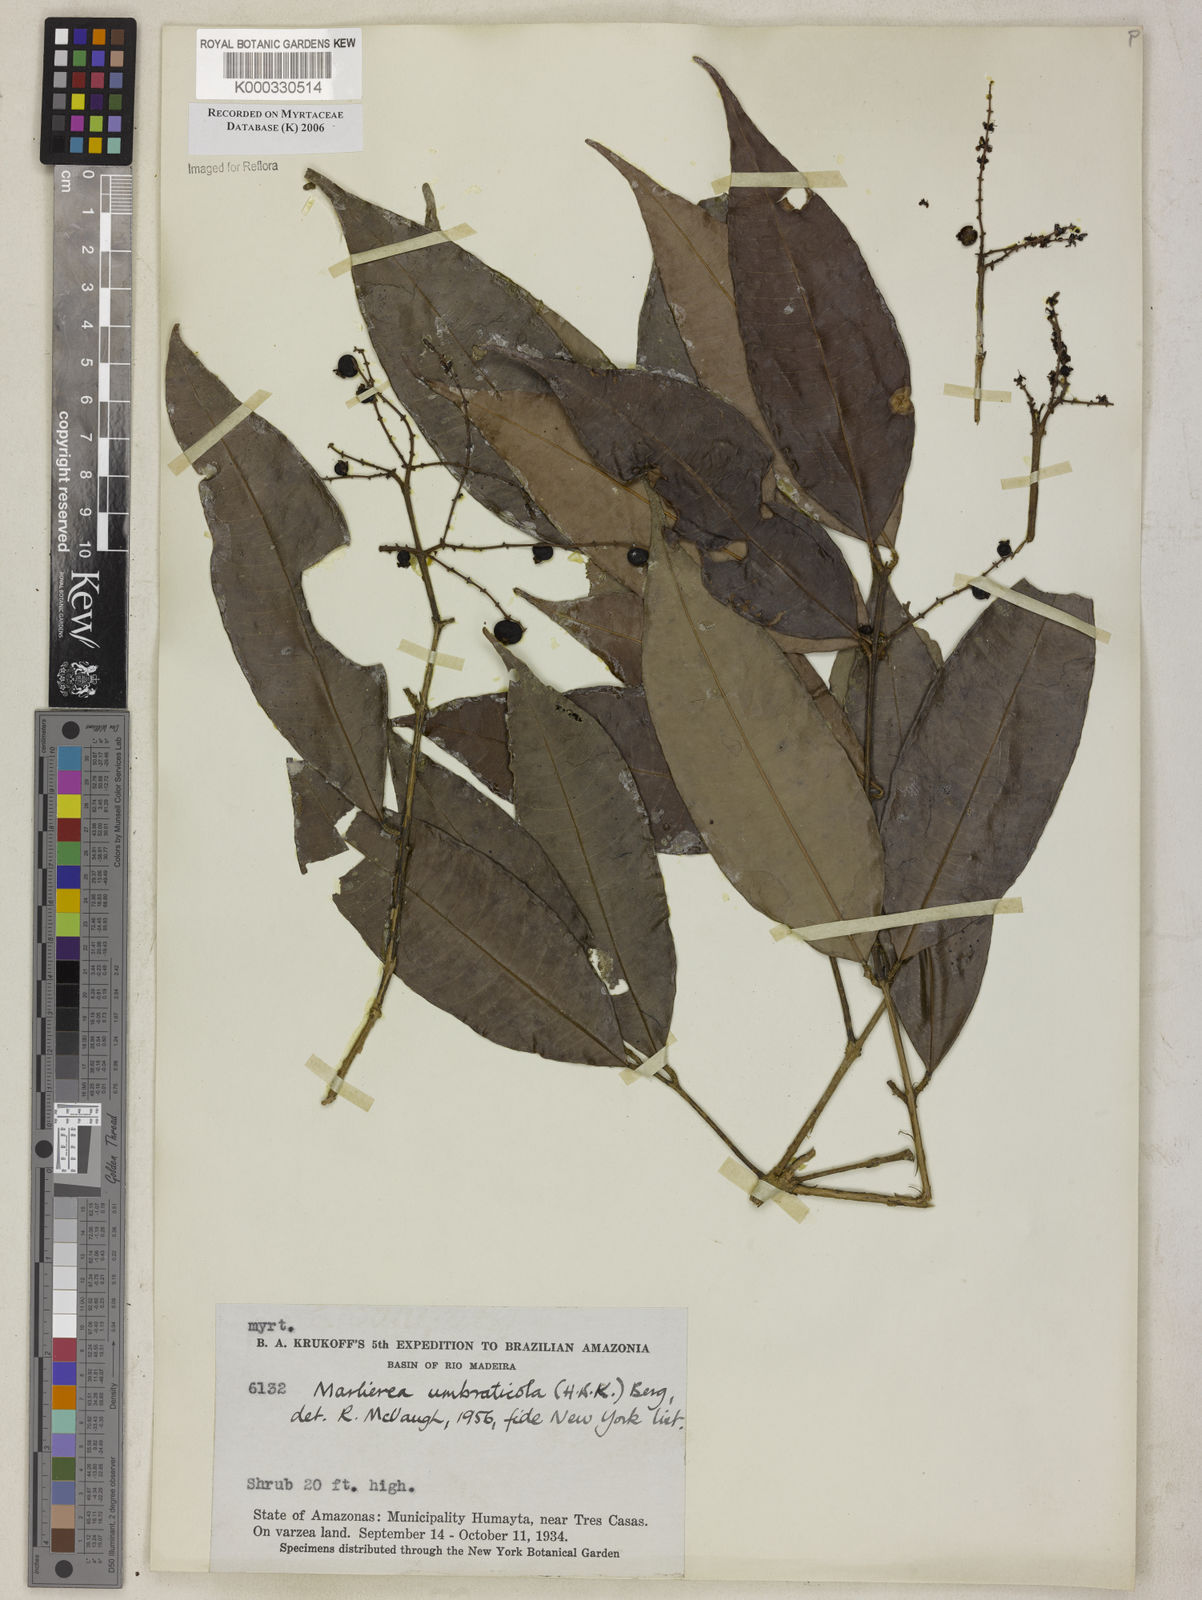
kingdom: Plantae
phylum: Tracheophyta
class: Magnoliopsida
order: Myrtales
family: Myrtaceae
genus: Myrcia
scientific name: Myrcia umbraticola
